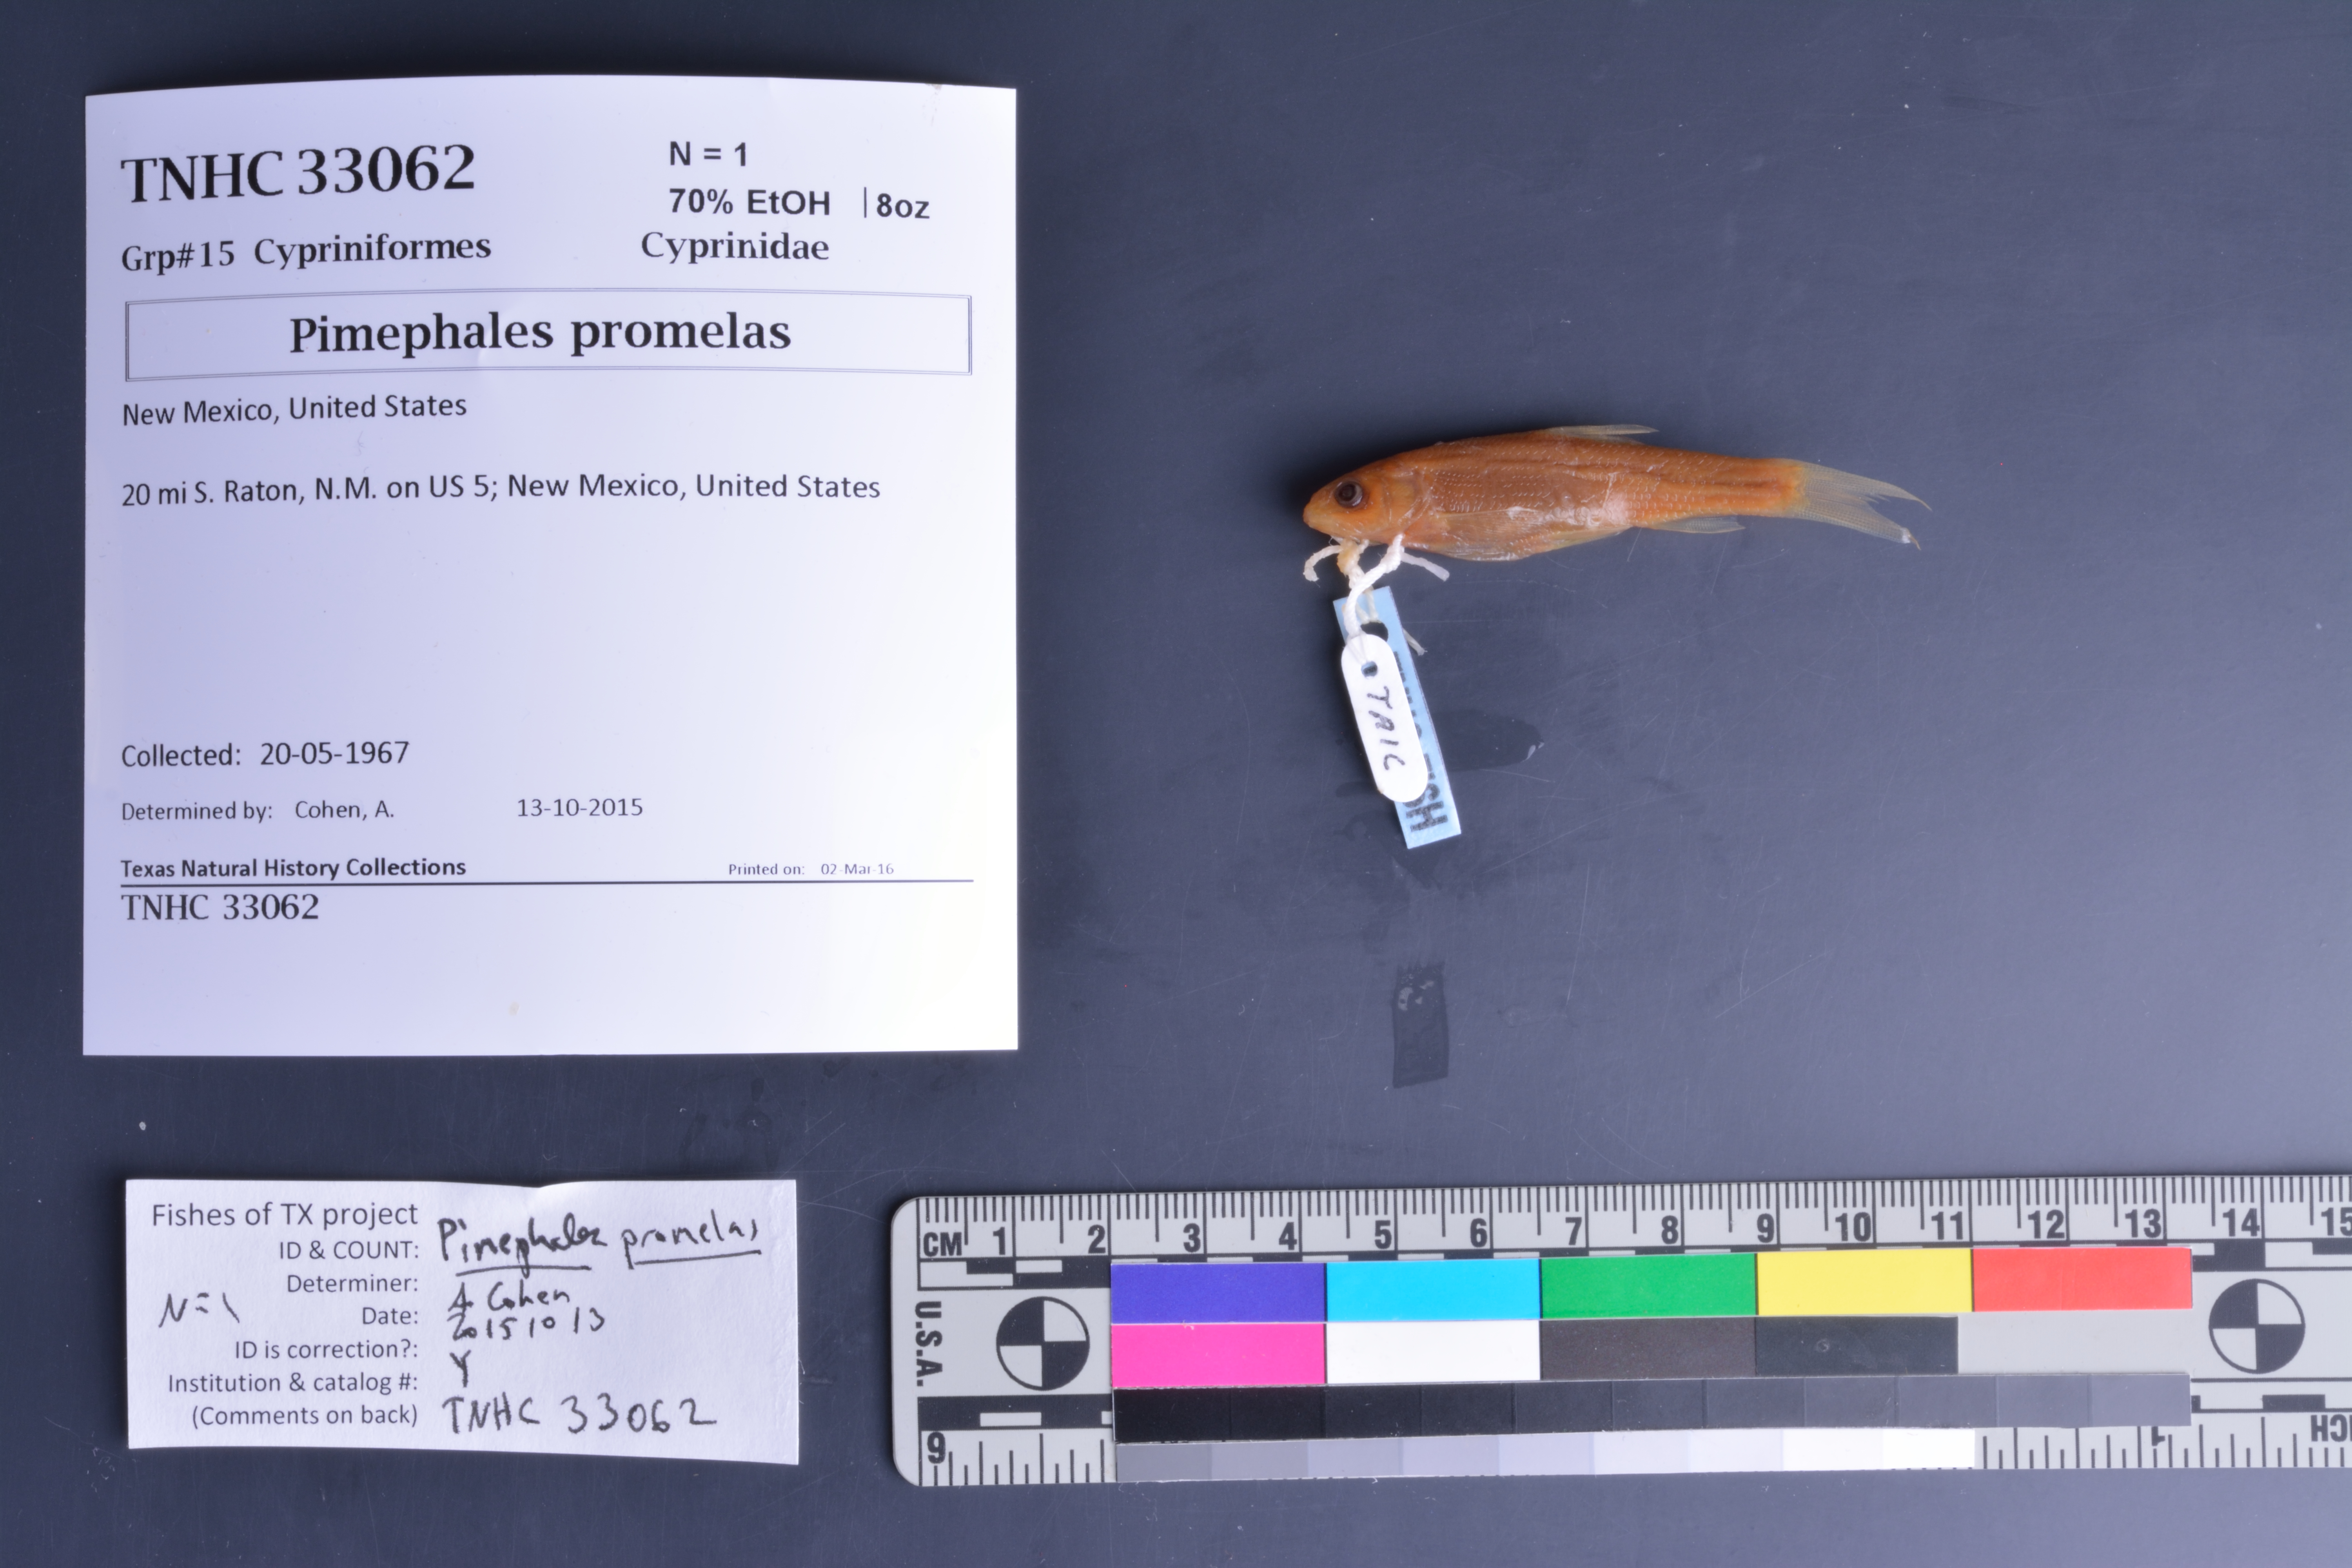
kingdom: Animalia
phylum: Chordata
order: Cypriniformes
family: Cyprinidae
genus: Pimephales
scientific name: Pimephales promelas
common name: Fathead minnow
